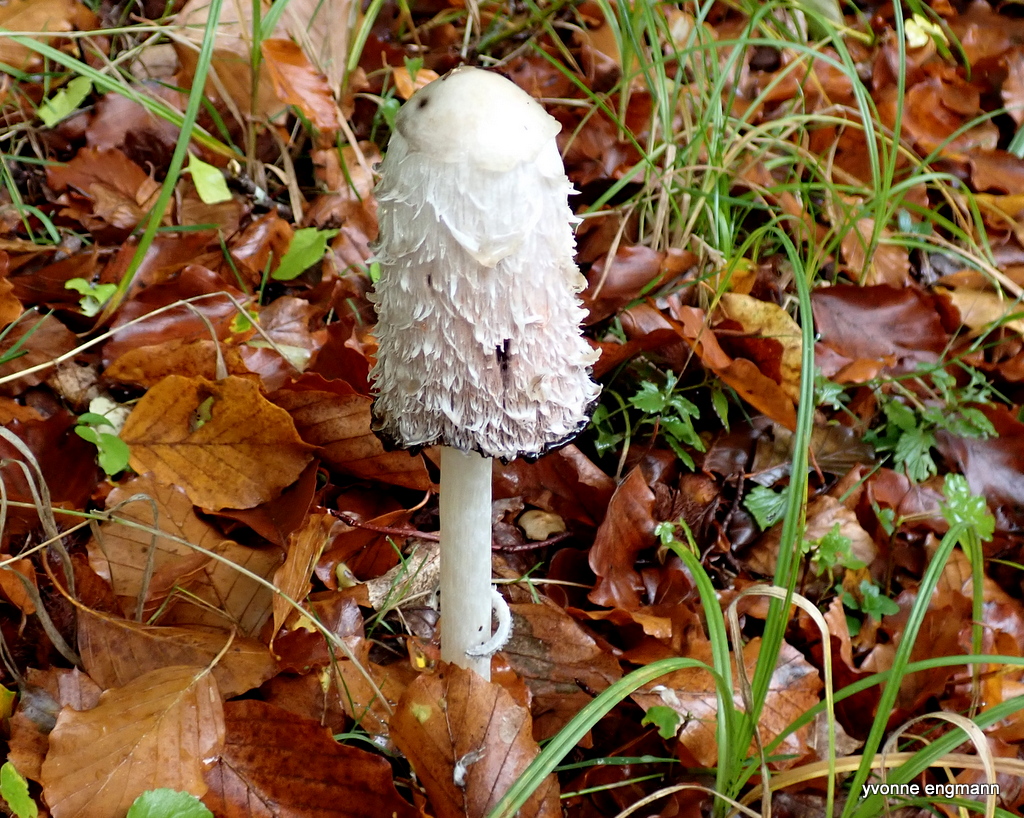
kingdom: Fungi
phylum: Basidiomycota
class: Agaricomycetes
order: Agaricales
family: Agaricaceae
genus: Coprinus
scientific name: Coprinus comatus
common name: stor parykhat
